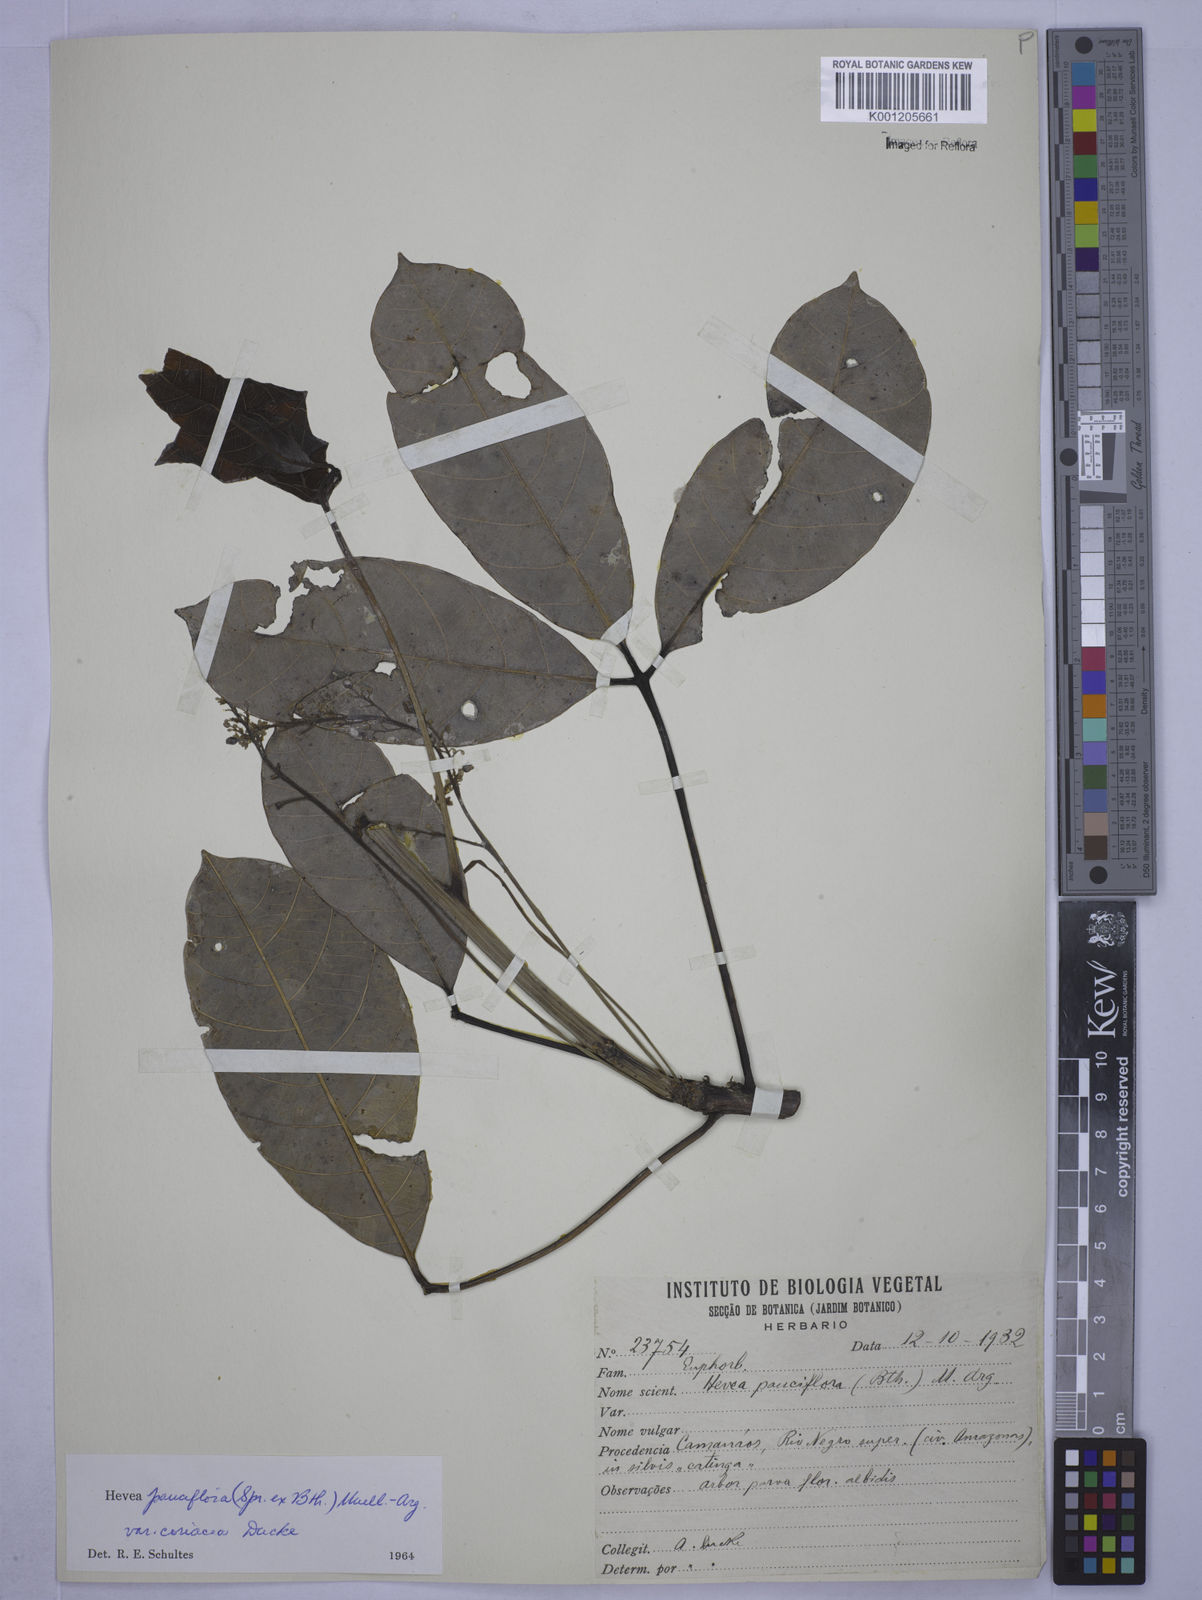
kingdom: Plantae
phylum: Tracheophyta
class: Magnoliopsida
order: Malpighiales
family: Euphorbiaceae
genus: Hevea
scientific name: Hevea pauciflora
